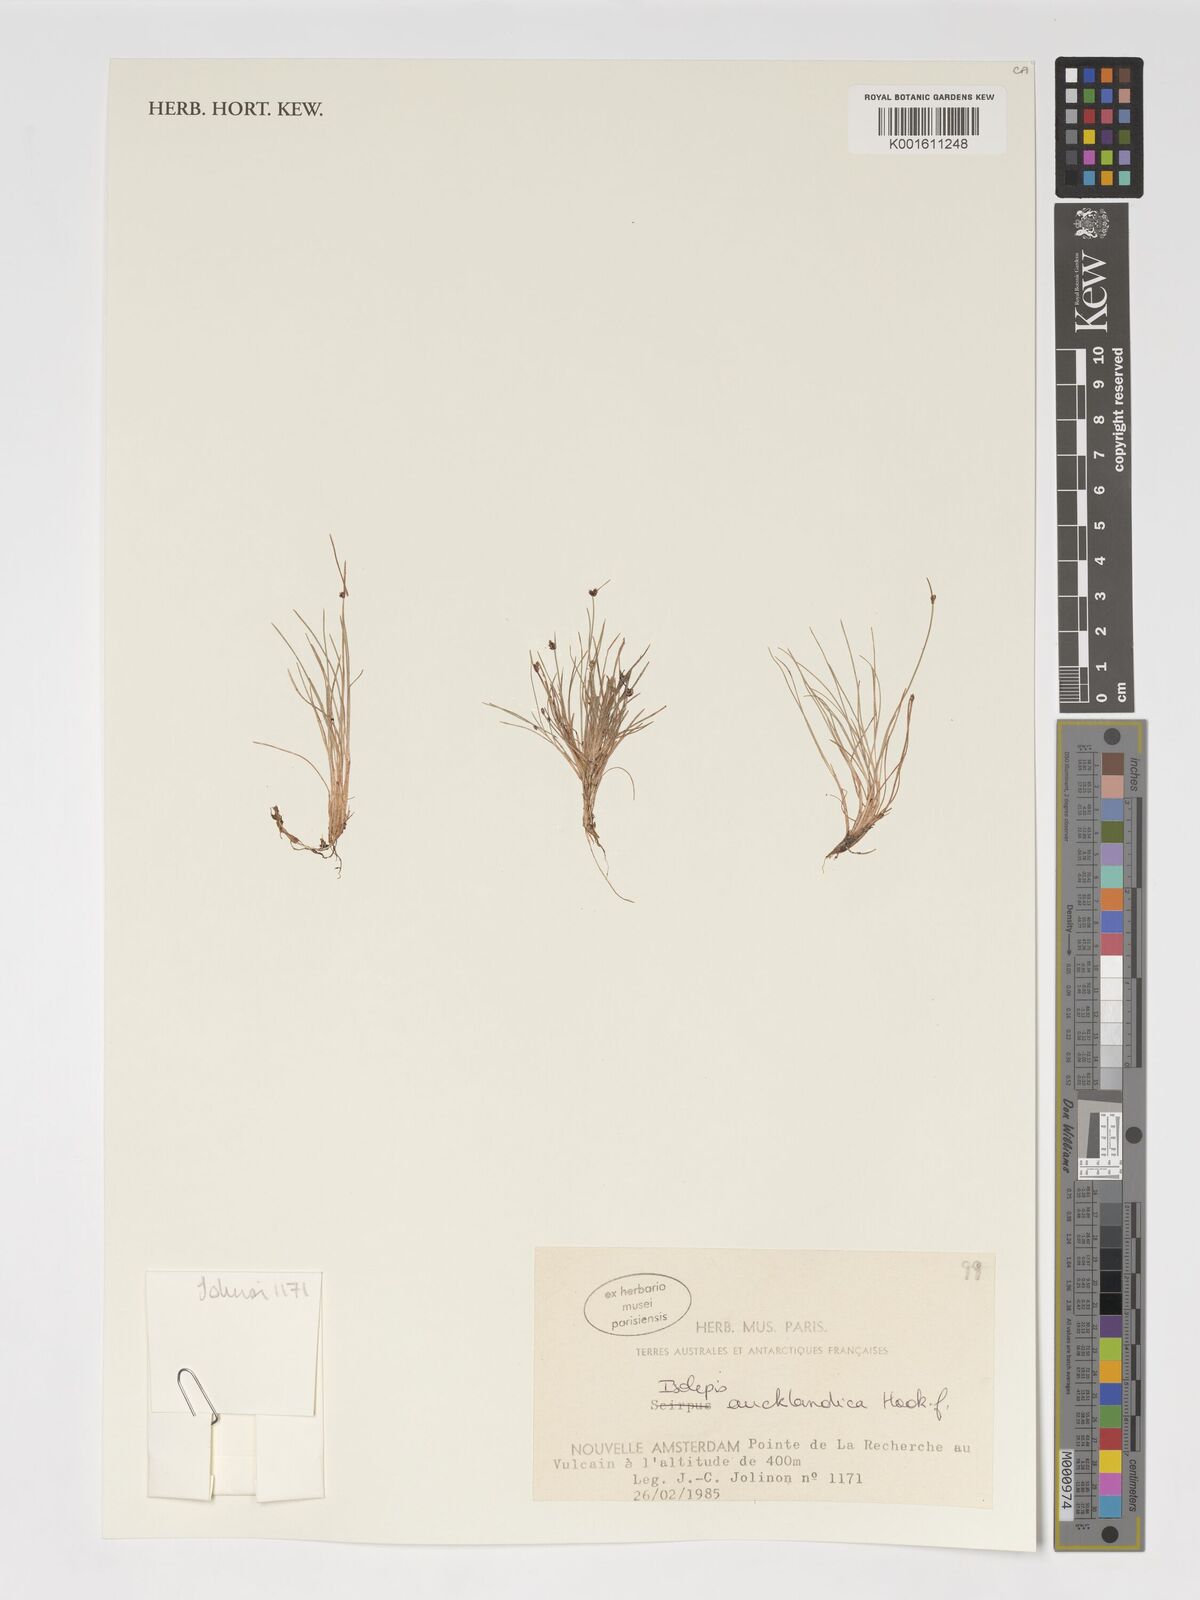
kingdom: Plantae
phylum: Tracheophyta
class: Liliopsida
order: Poales
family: Cyperaceae
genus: Isolepis
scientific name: Isolepis aucklandica
